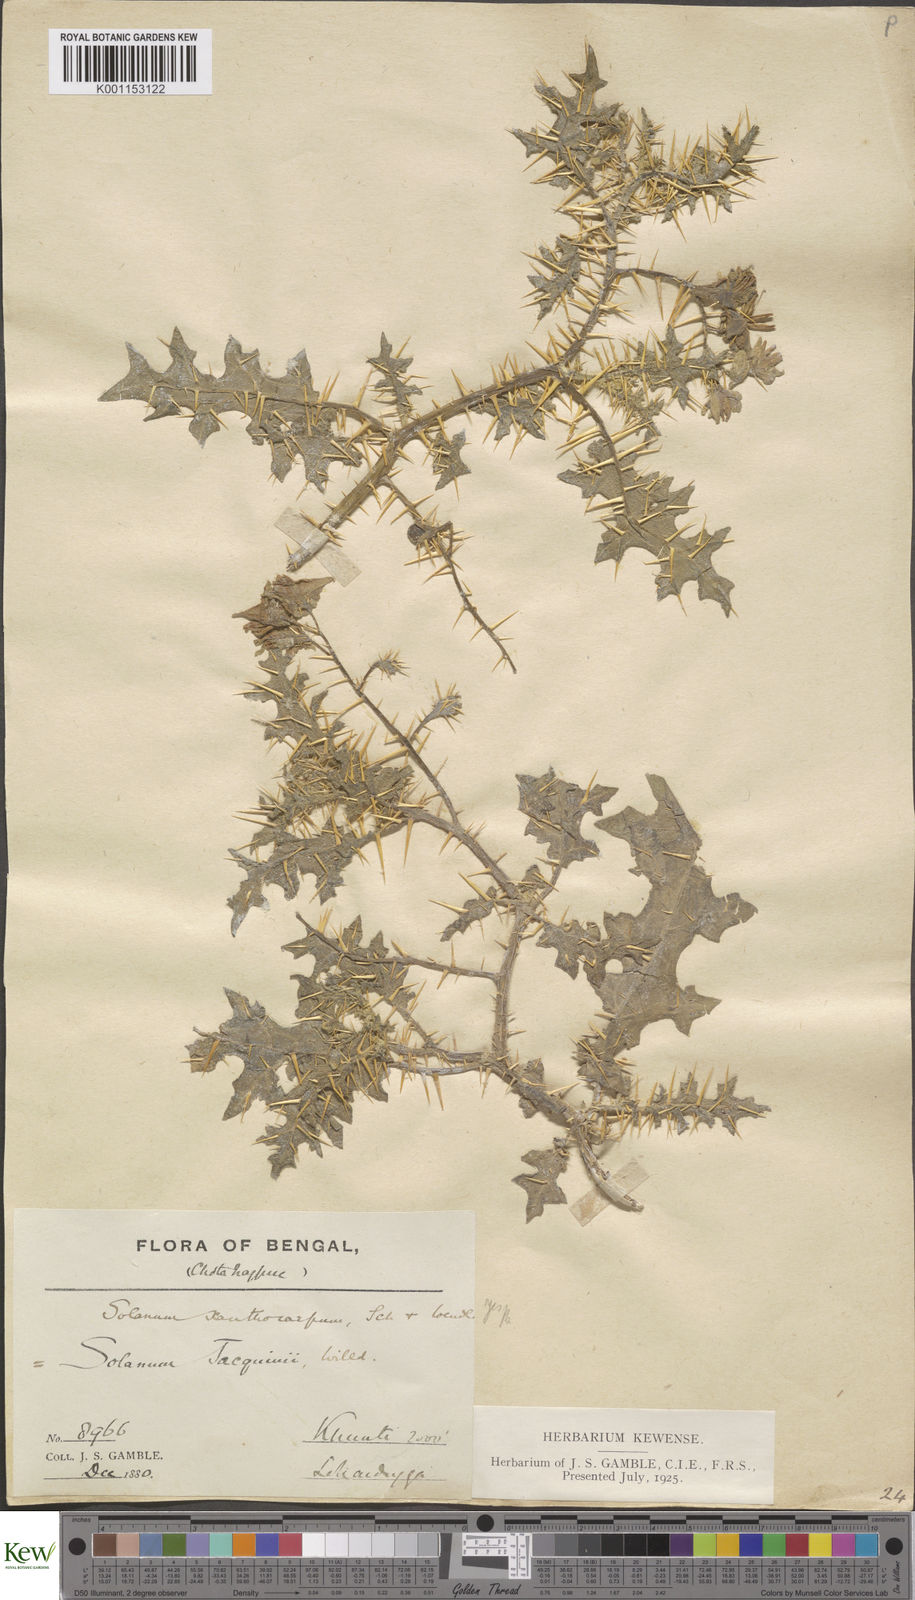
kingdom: Plantae
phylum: Tracheophyta
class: Magnoliopsida
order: Solanales
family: Solanaceae
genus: Solanum
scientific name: Solanum virginianum
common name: Surattense nightshade
